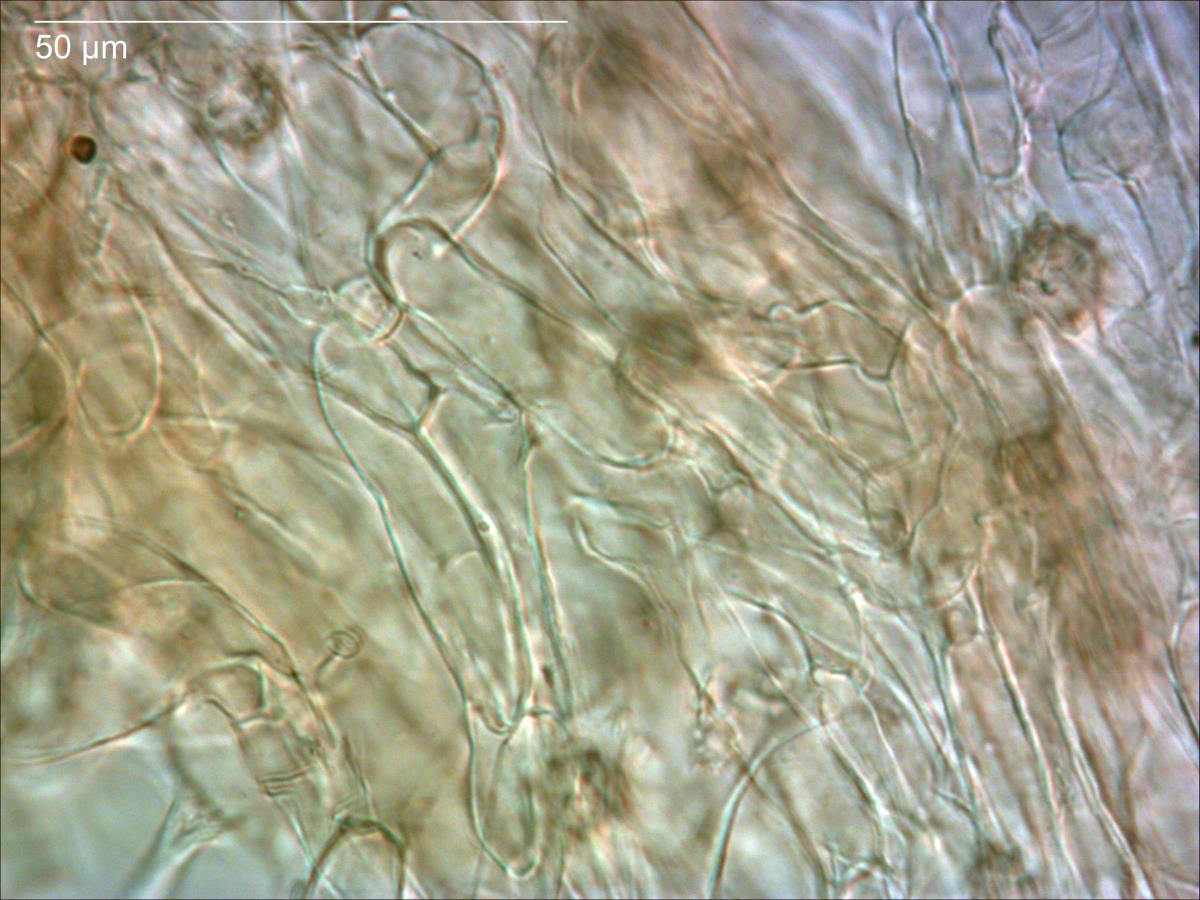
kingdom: Fungi
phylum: Basidiomycota
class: Agaricomycetes
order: Agaricales
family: Hydnangiaceae
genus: Laccaria
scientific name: Laccaria masoniae
